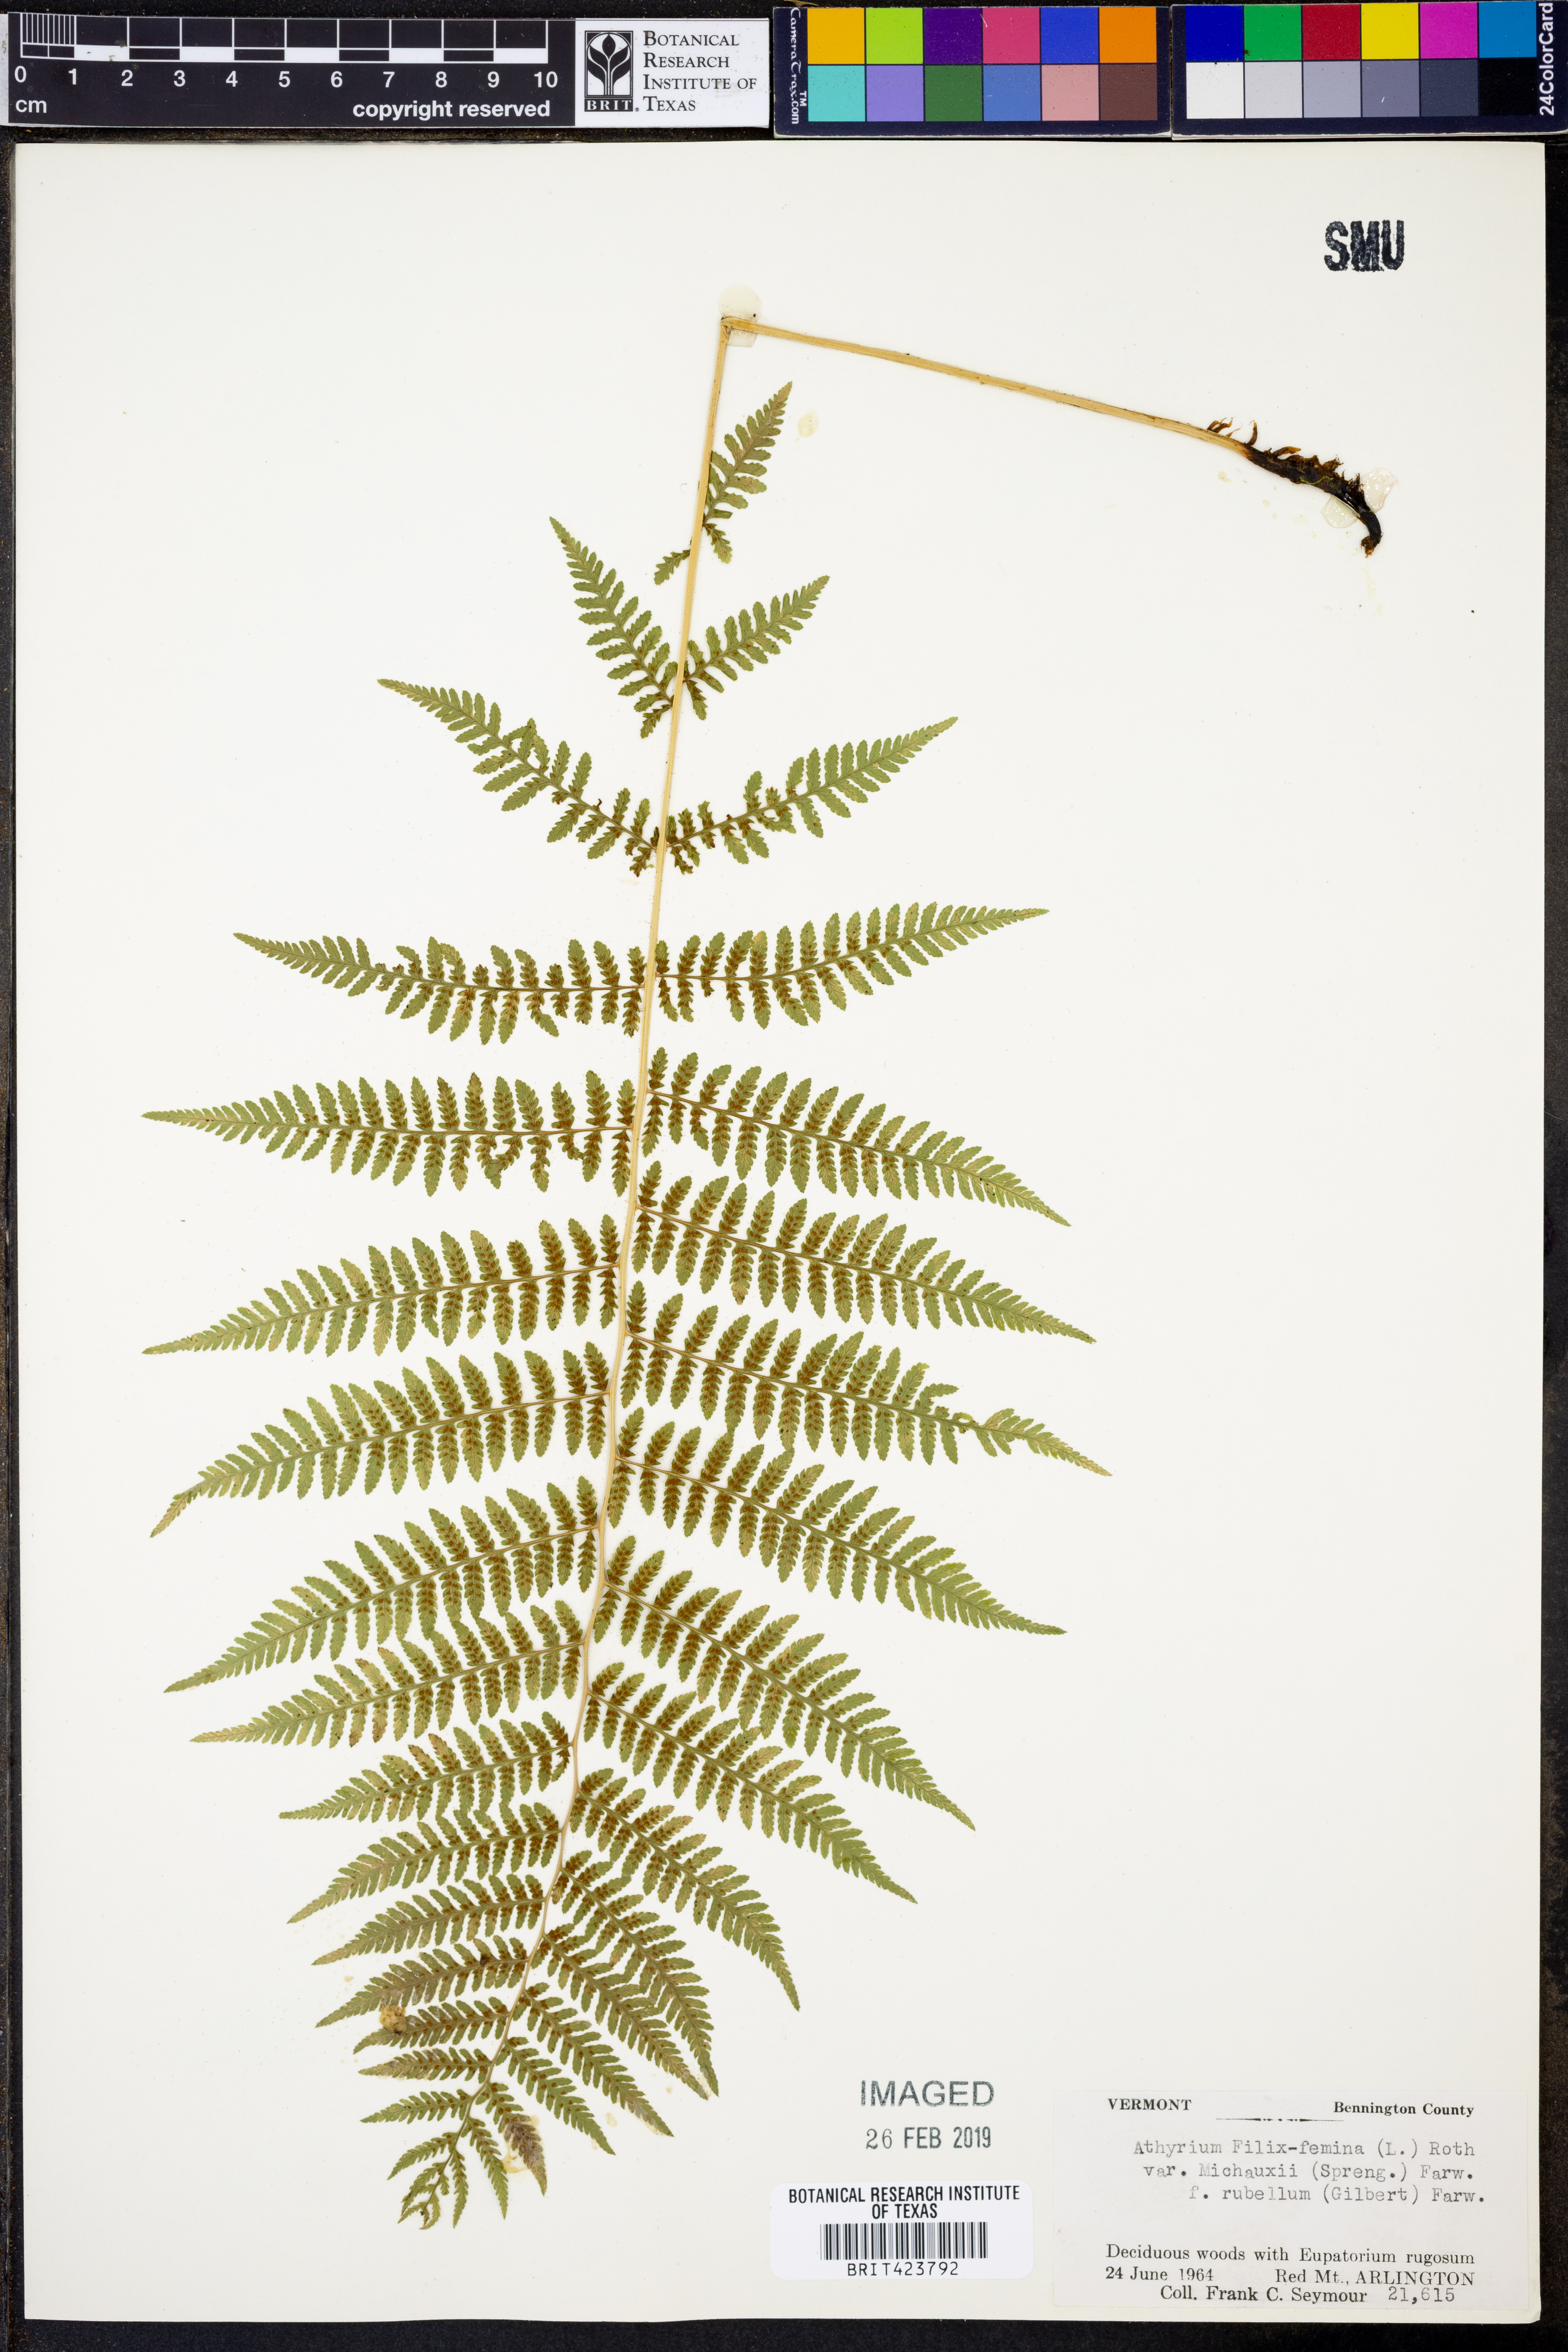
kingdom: Plantae
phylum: Tracheophyta
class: Polypodiopsida
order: Polypodiales
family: Athyriaceae
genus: Athyrium
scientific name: Athyrium angustum
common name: Northern lady fern
